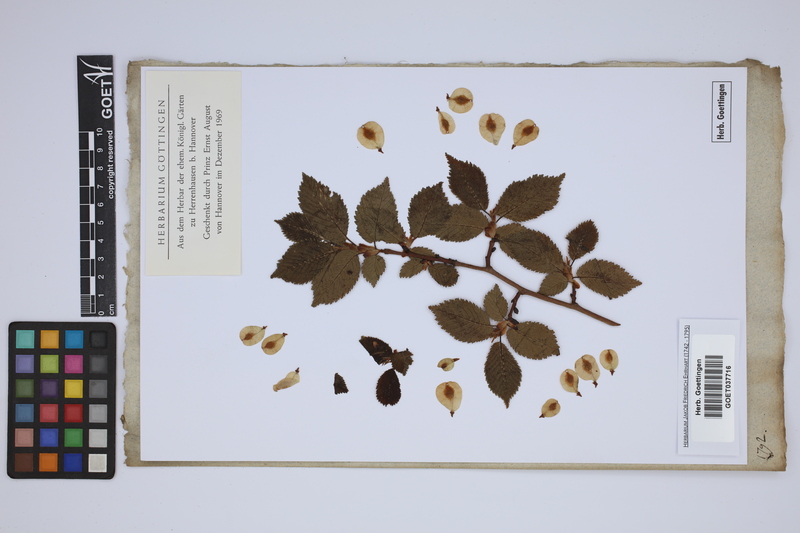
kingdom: Plantae
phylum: Tracheophyta
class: Magnoliopsida
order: Rosales
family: Ulmaceae
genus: Ulmus
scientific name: Ulmus
